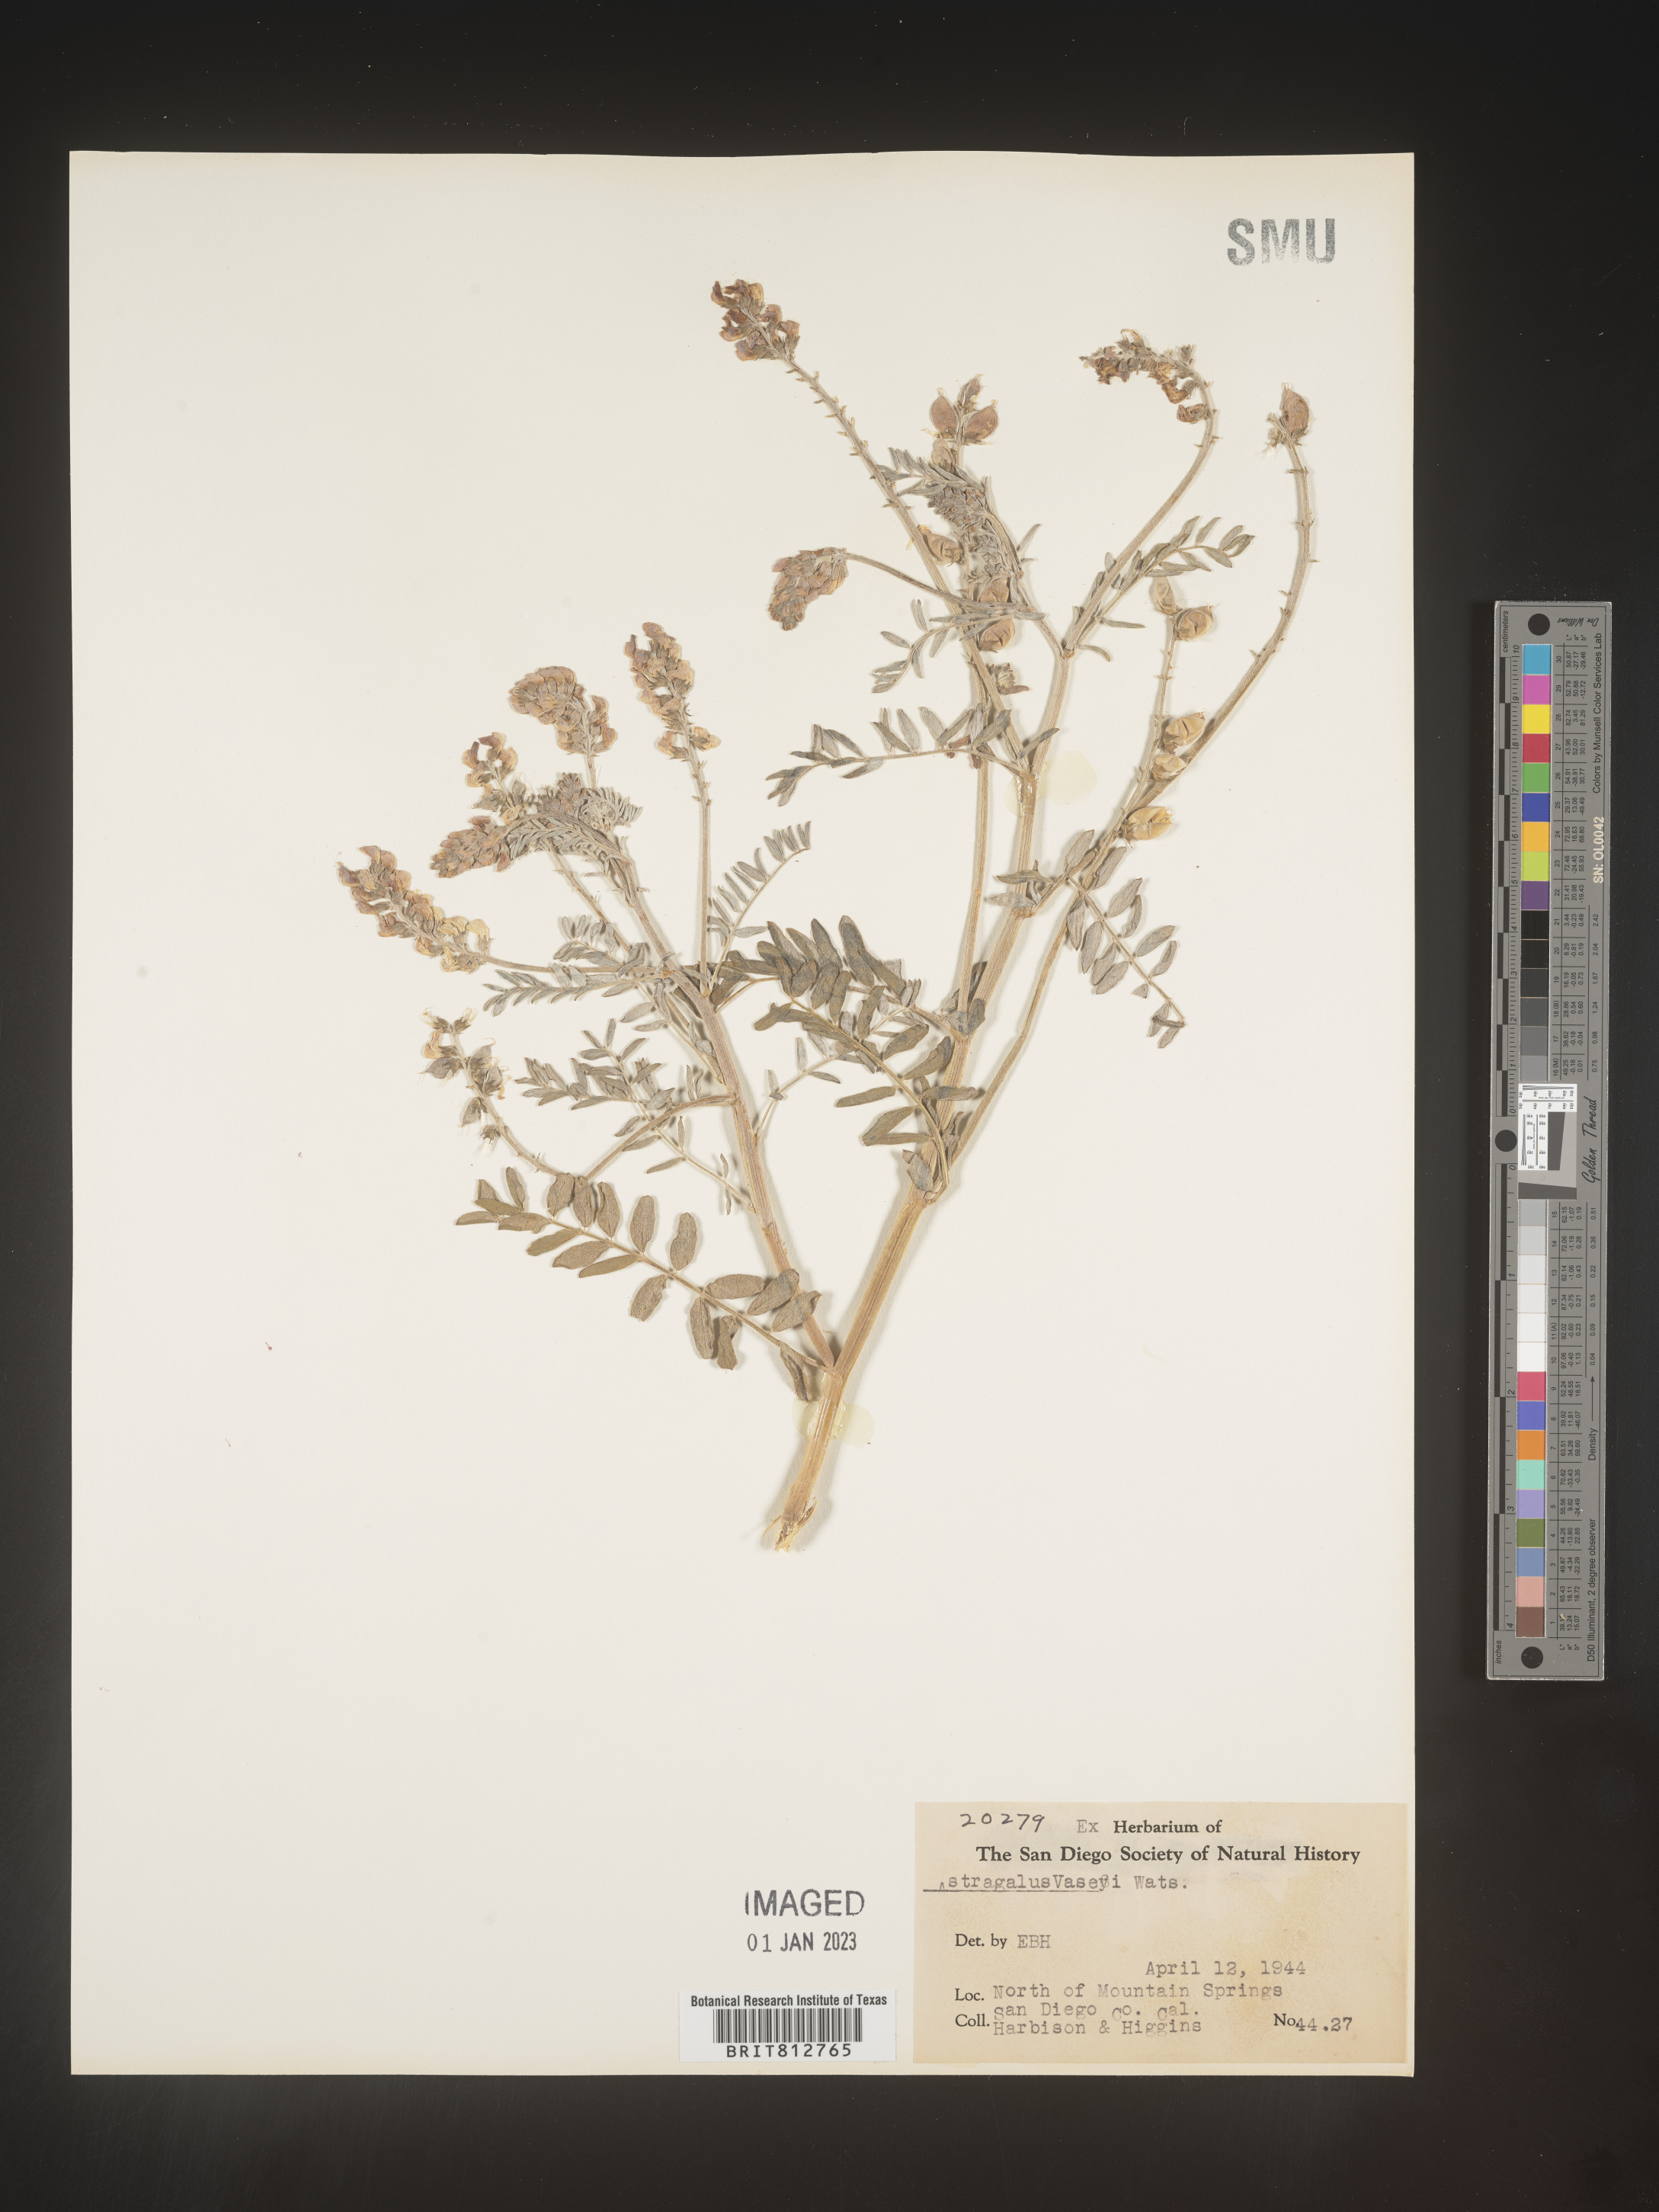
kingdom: Plantae
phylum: Tracheophyta
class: Magnoliopsida
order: Fabales
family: Fabaceae
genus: Astragalus
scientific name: Astragalus
